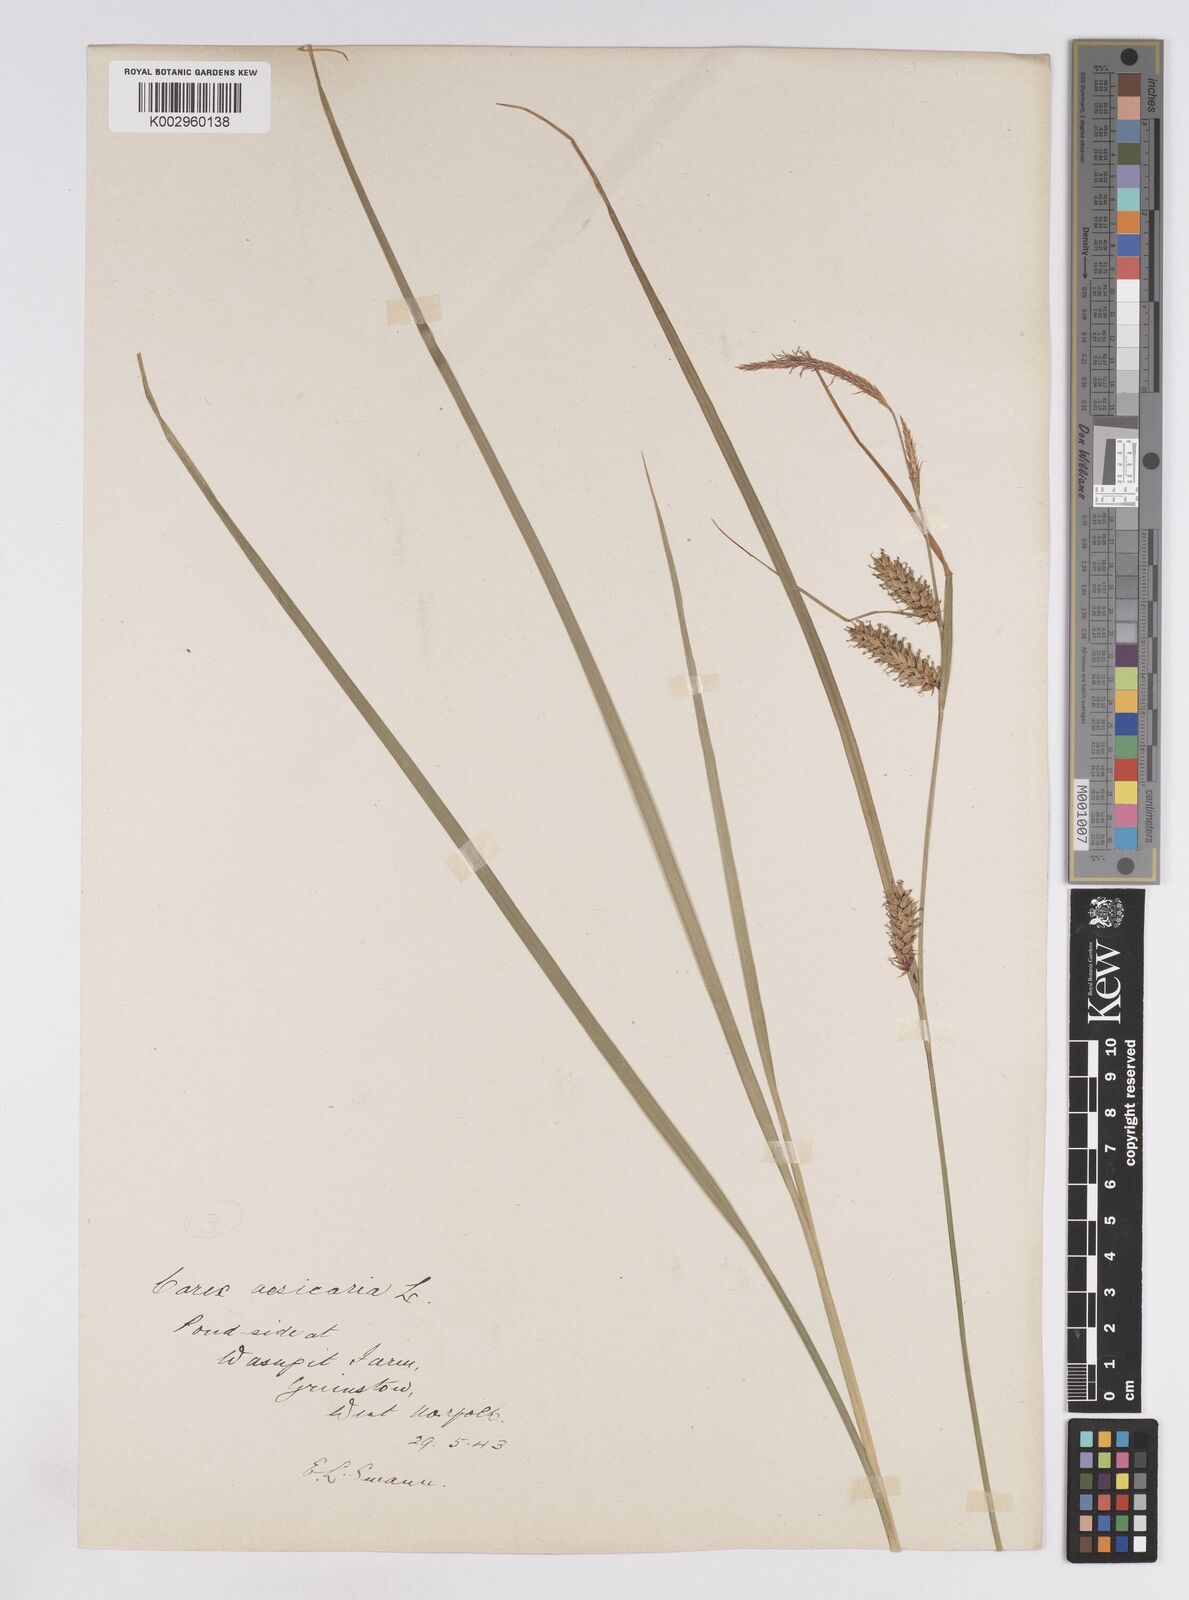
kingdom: Plantae
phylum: Tracheophyta
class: Liliopsida
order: Poales
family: Cyperaceae
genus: Carex
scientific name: Carex vesicaria
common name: Bladder-sedge
